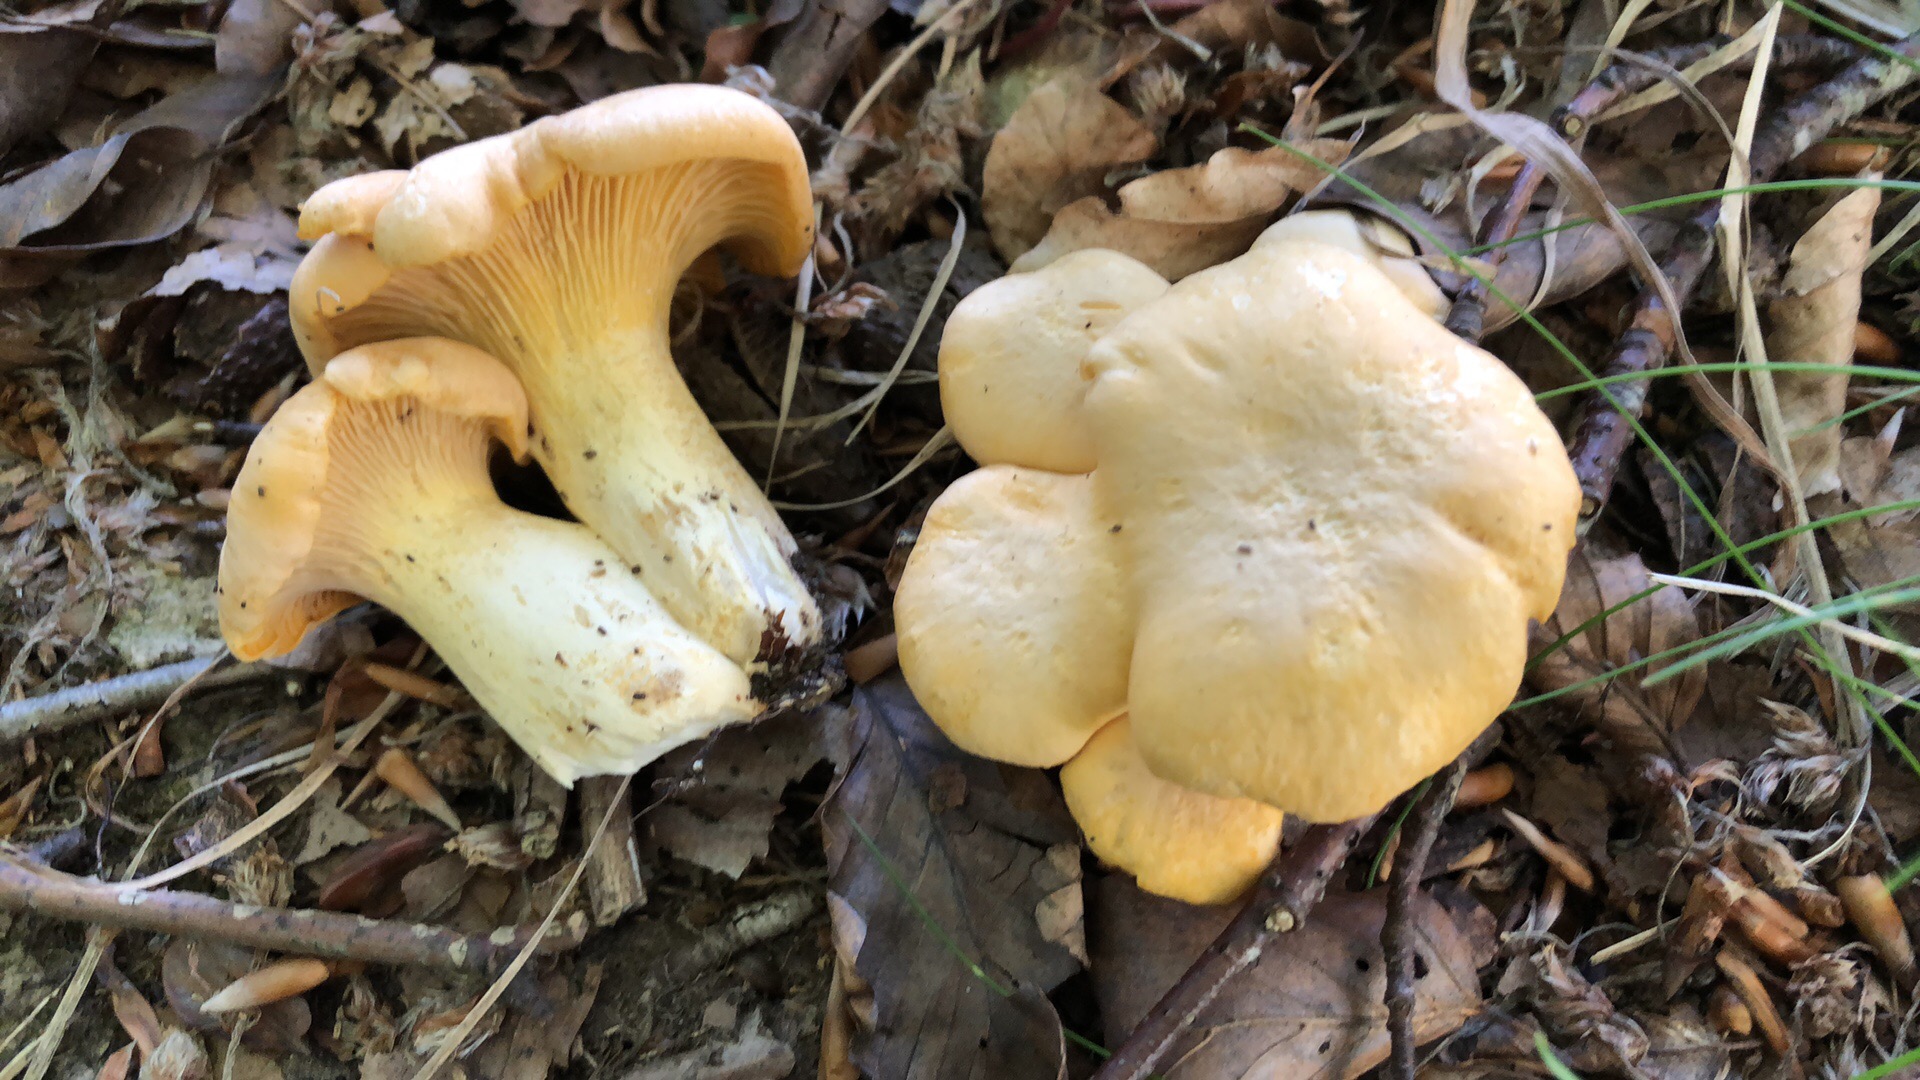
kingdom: Fungi
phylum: Basidiomycota
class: Agaricomycetes
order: Cantharellales
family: Hydnaceae
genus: Cantharellus
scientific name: Cantharellus pallens
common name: bleg kantarel
